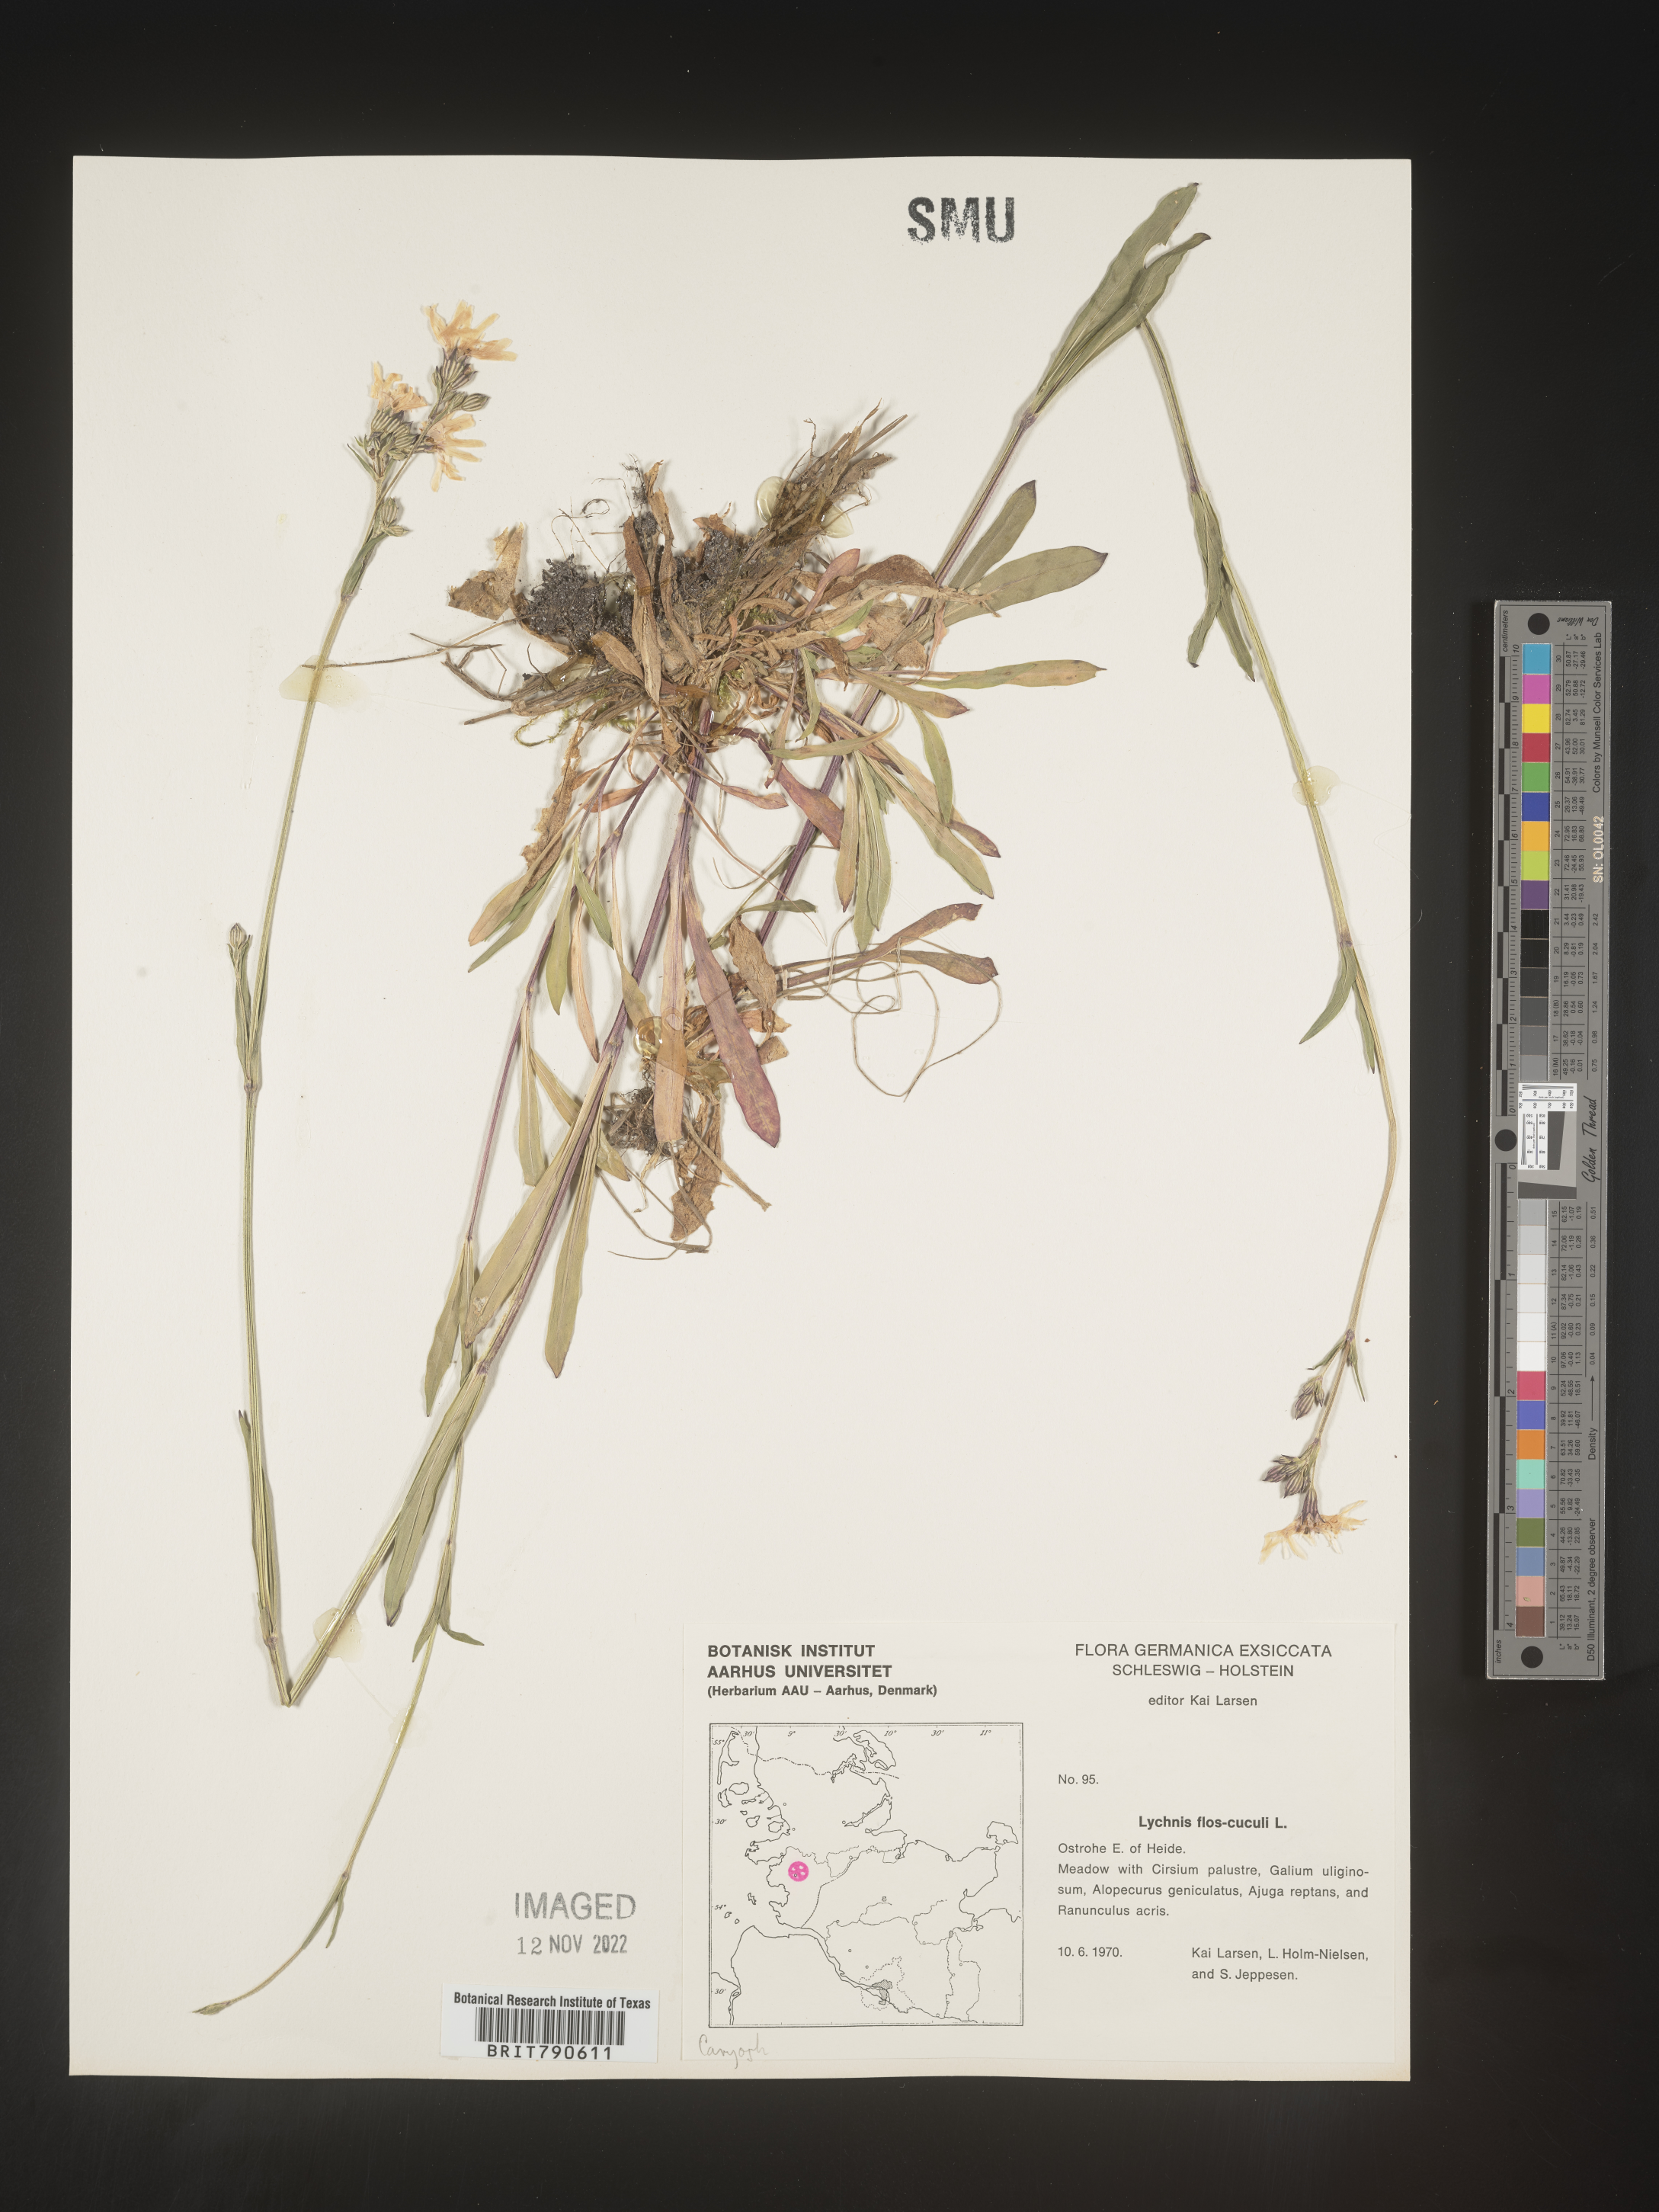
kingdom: Plantae
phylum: Tracheophyta
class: Magnoliopsida
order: Caryophyllales
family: Caryophyllaceae
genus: Silene
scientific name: Silene
